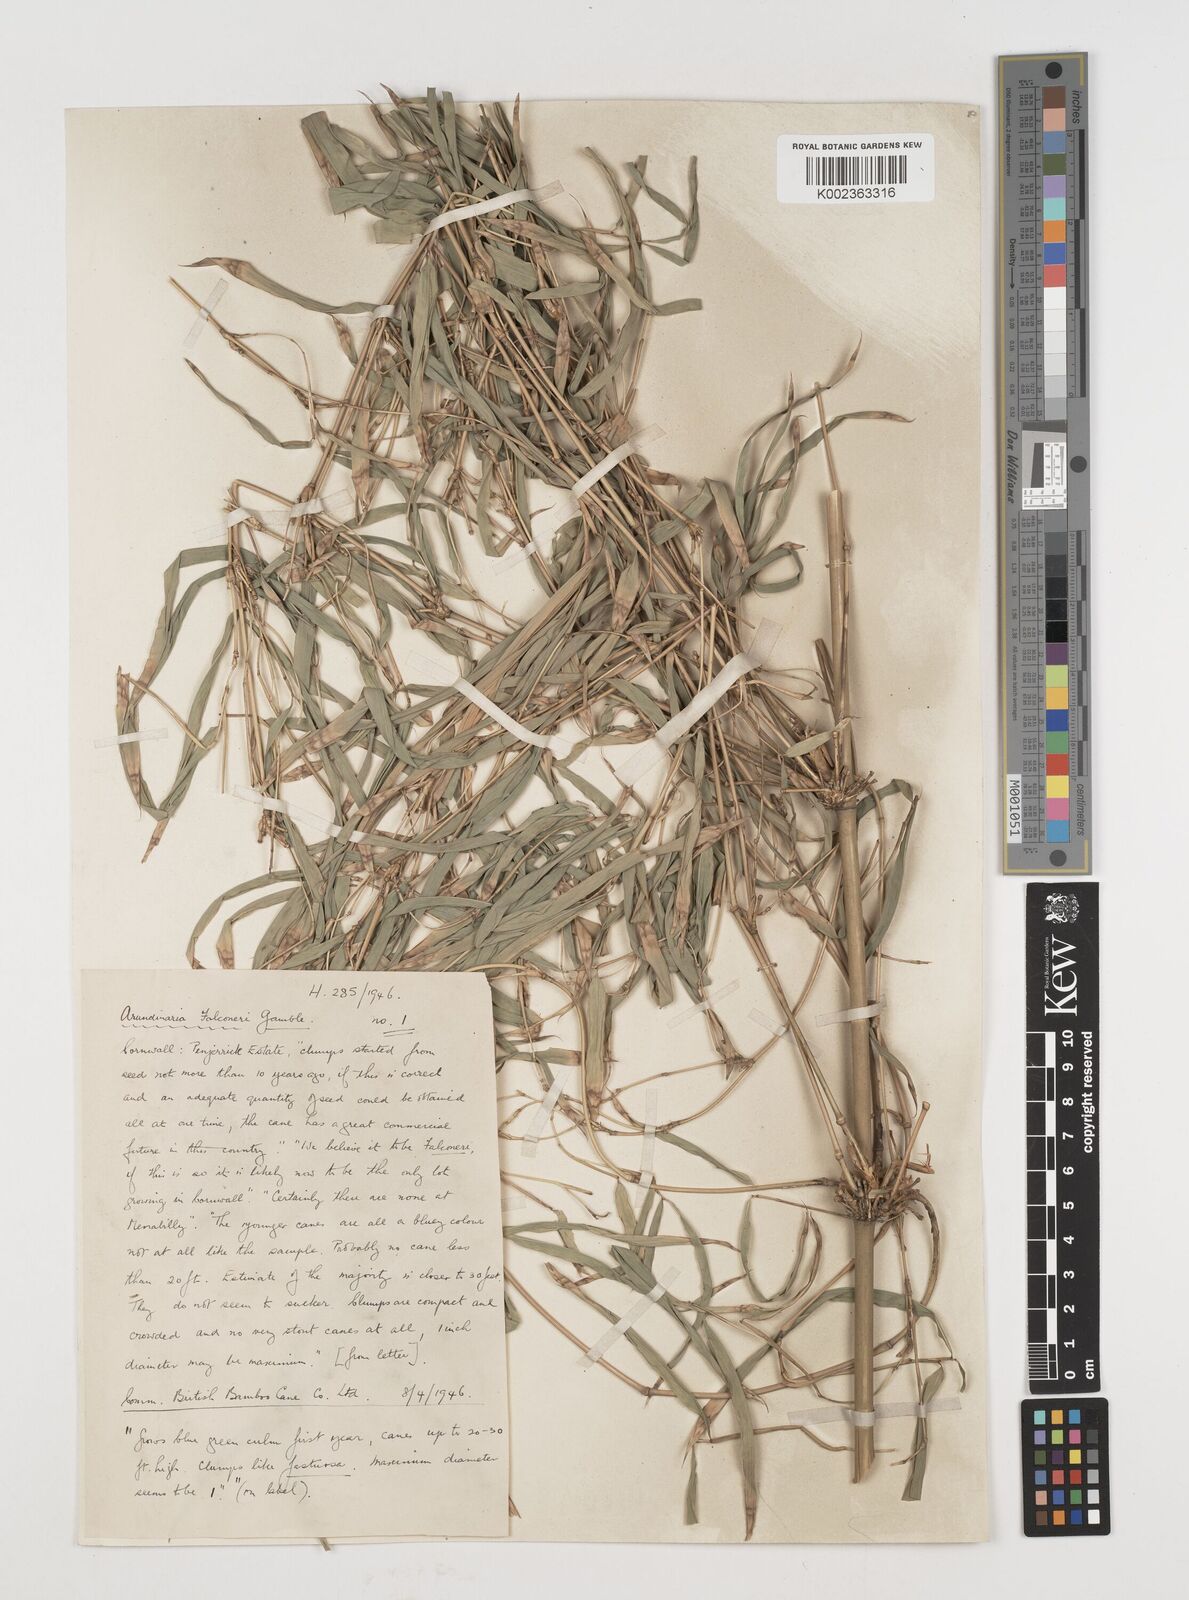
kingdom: Plantae
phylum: Tracheophyta
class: Liliopsida
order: Poales
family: Poaceae
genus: Himalayacalamus
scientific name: Himalayacalamus falconeri
